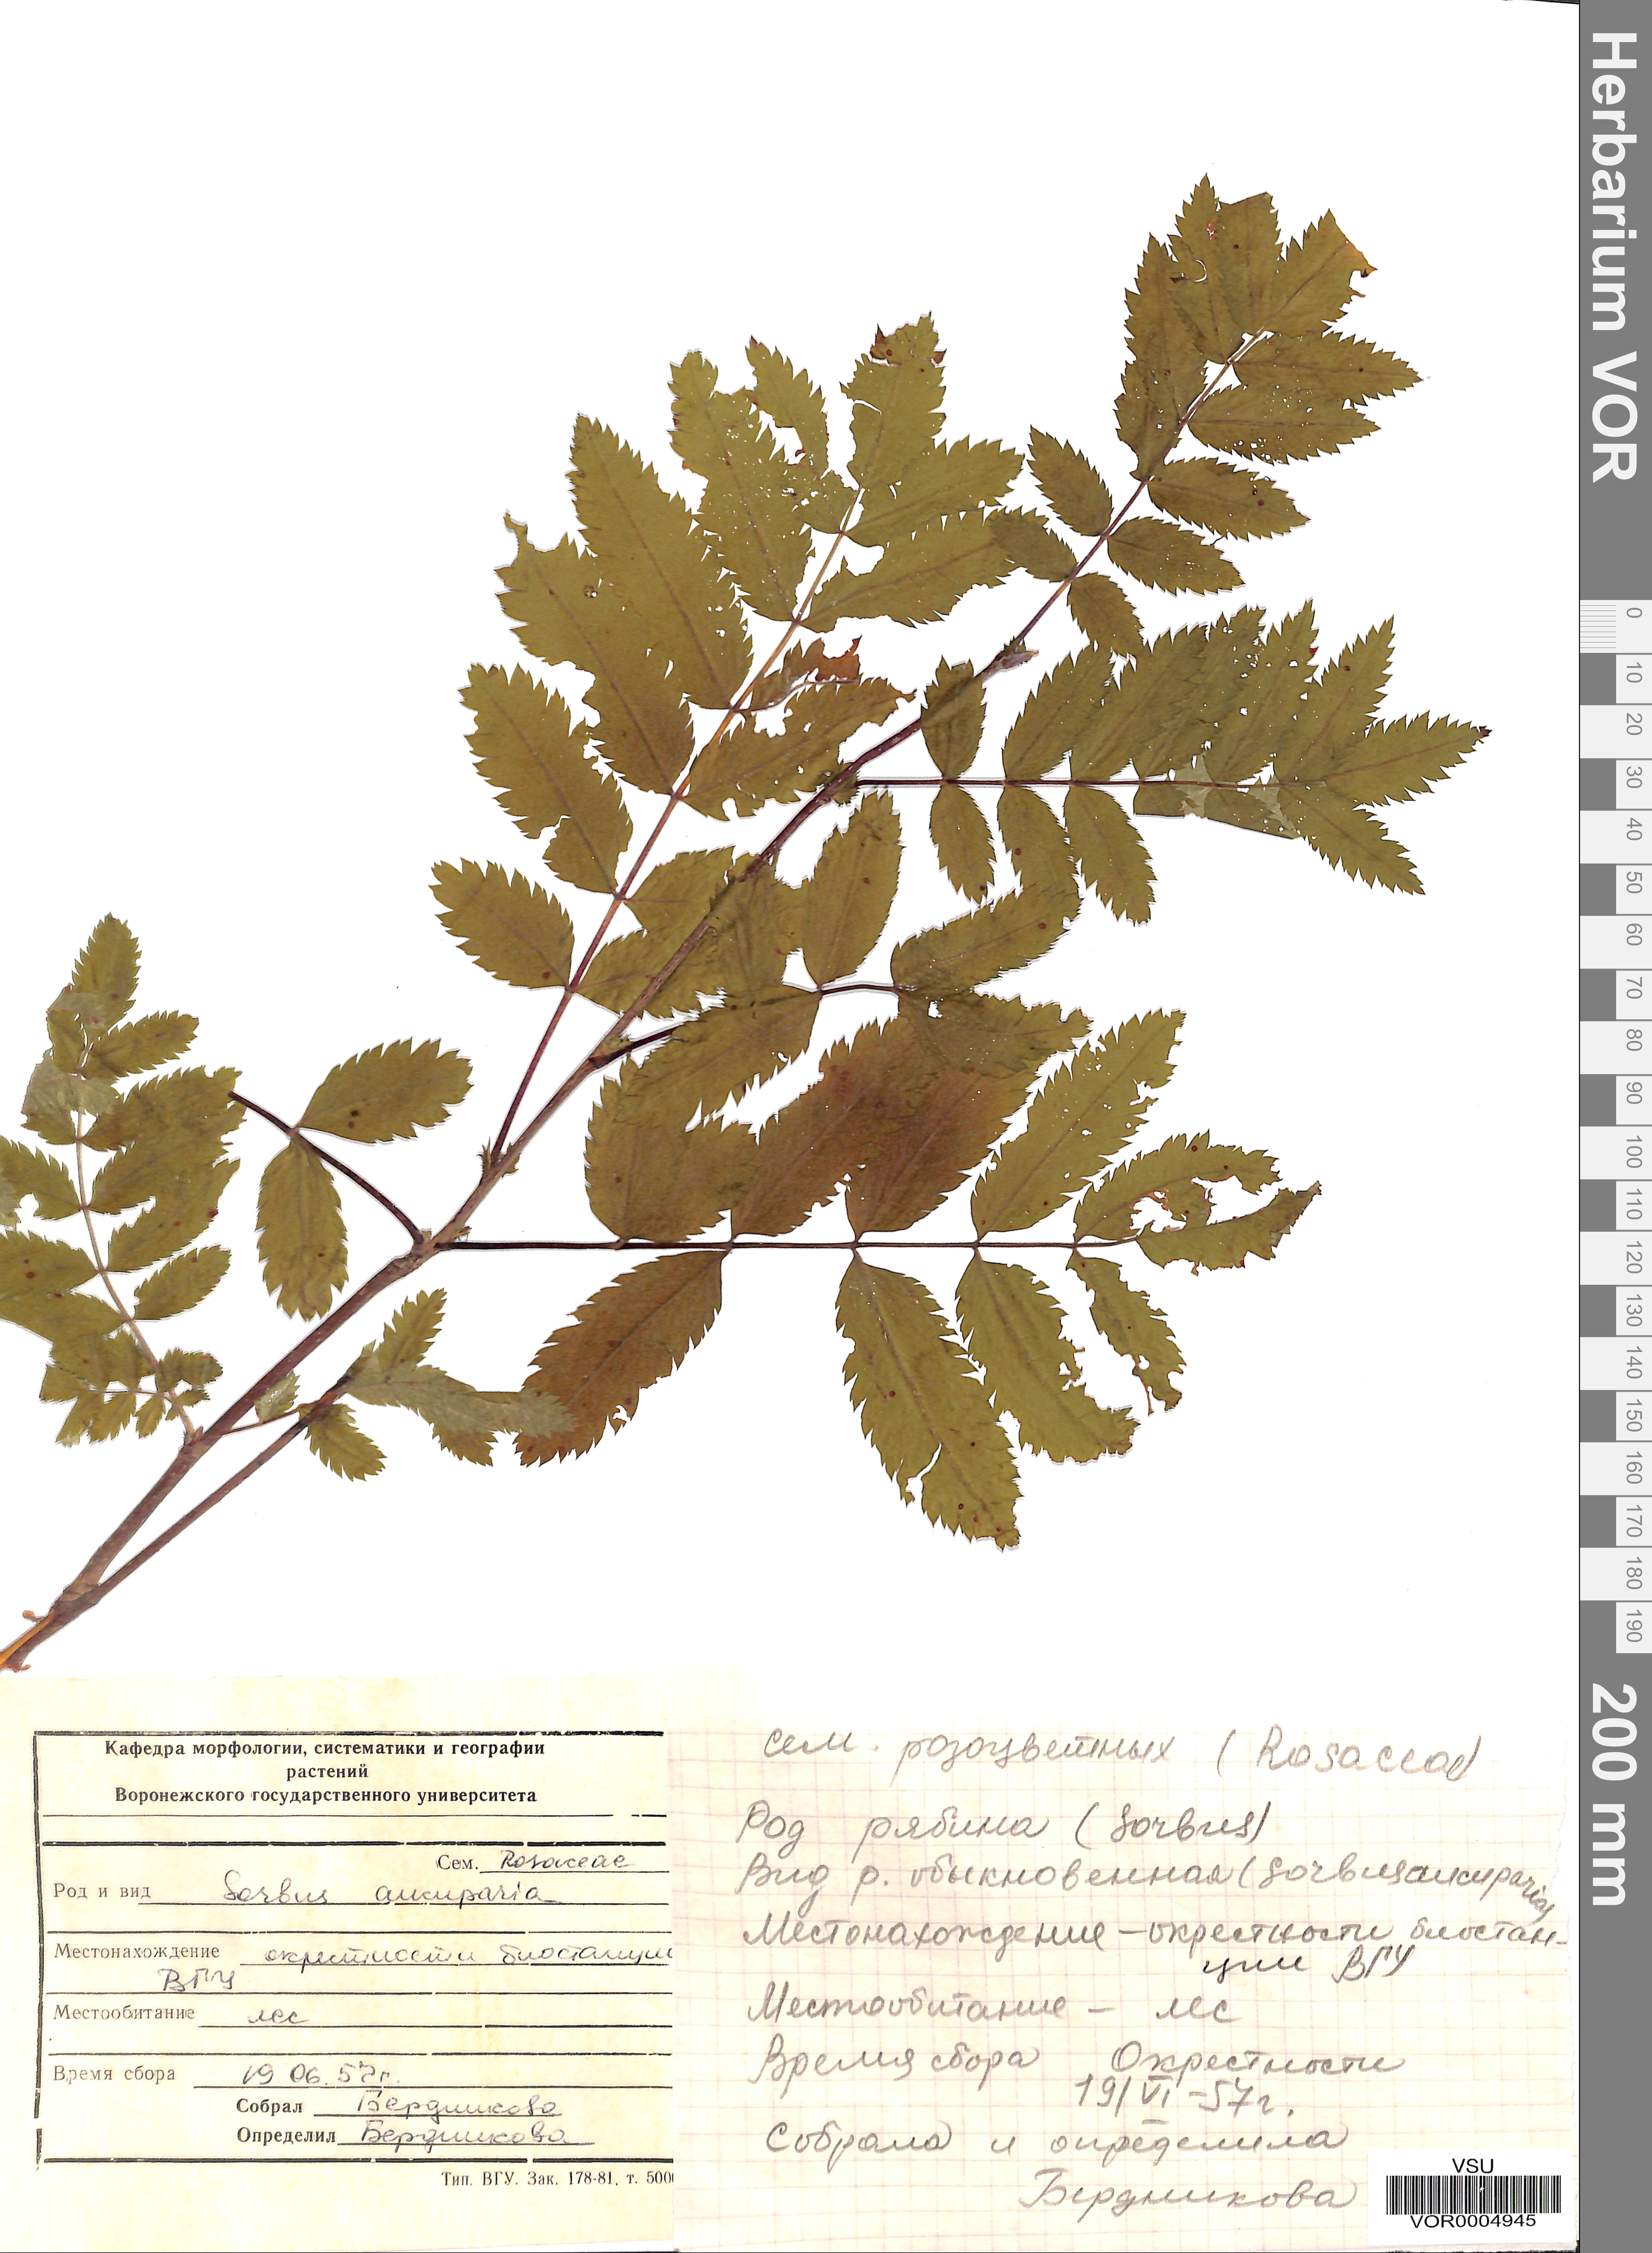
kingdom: Plantae
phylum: Tracheophyta
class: Magnoliopsida
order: Rosales
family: Rosaceae
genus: Sorbus
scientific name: Sorbus aucuparia
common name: Rowan
